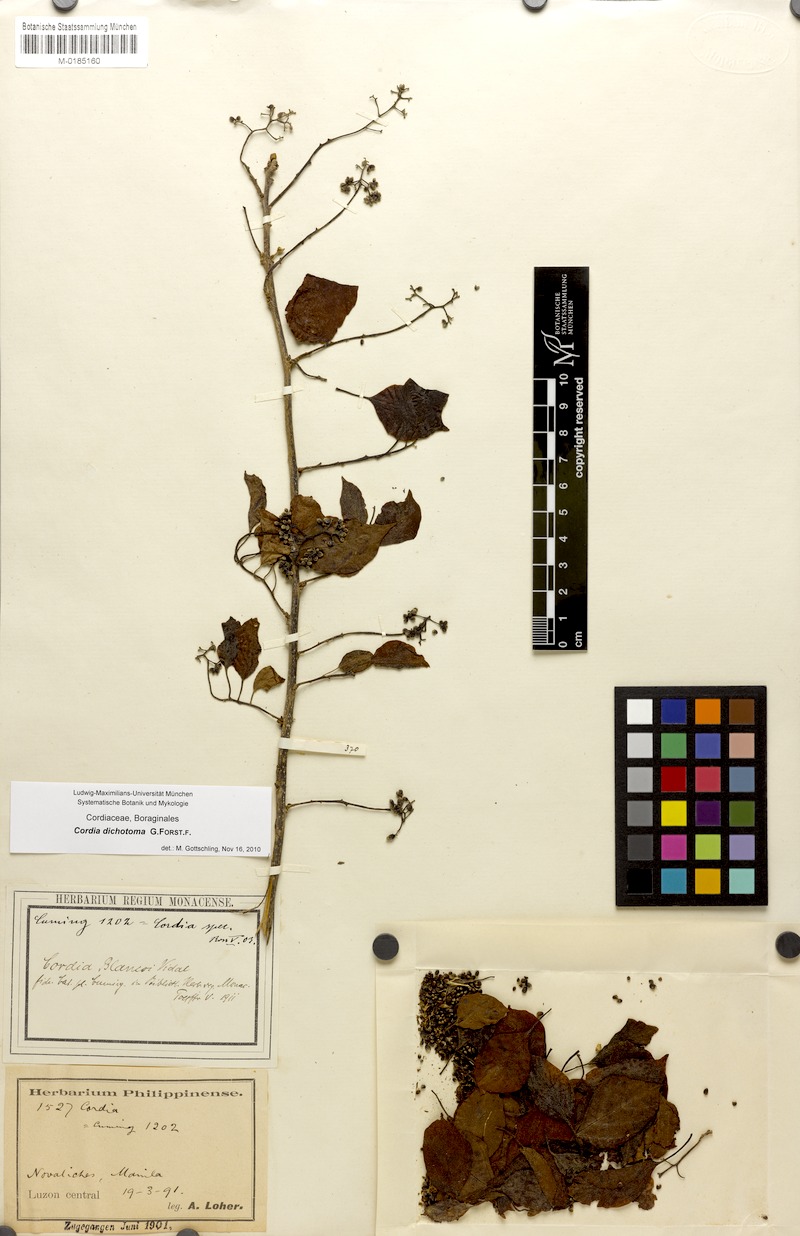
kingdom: Plantae
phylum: Tracheophyta
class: Magnoliopsida
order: Boraginales
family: Cordiaceae
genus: Cordia
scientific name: Cordia dichotoma
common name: Fragrant manjack
